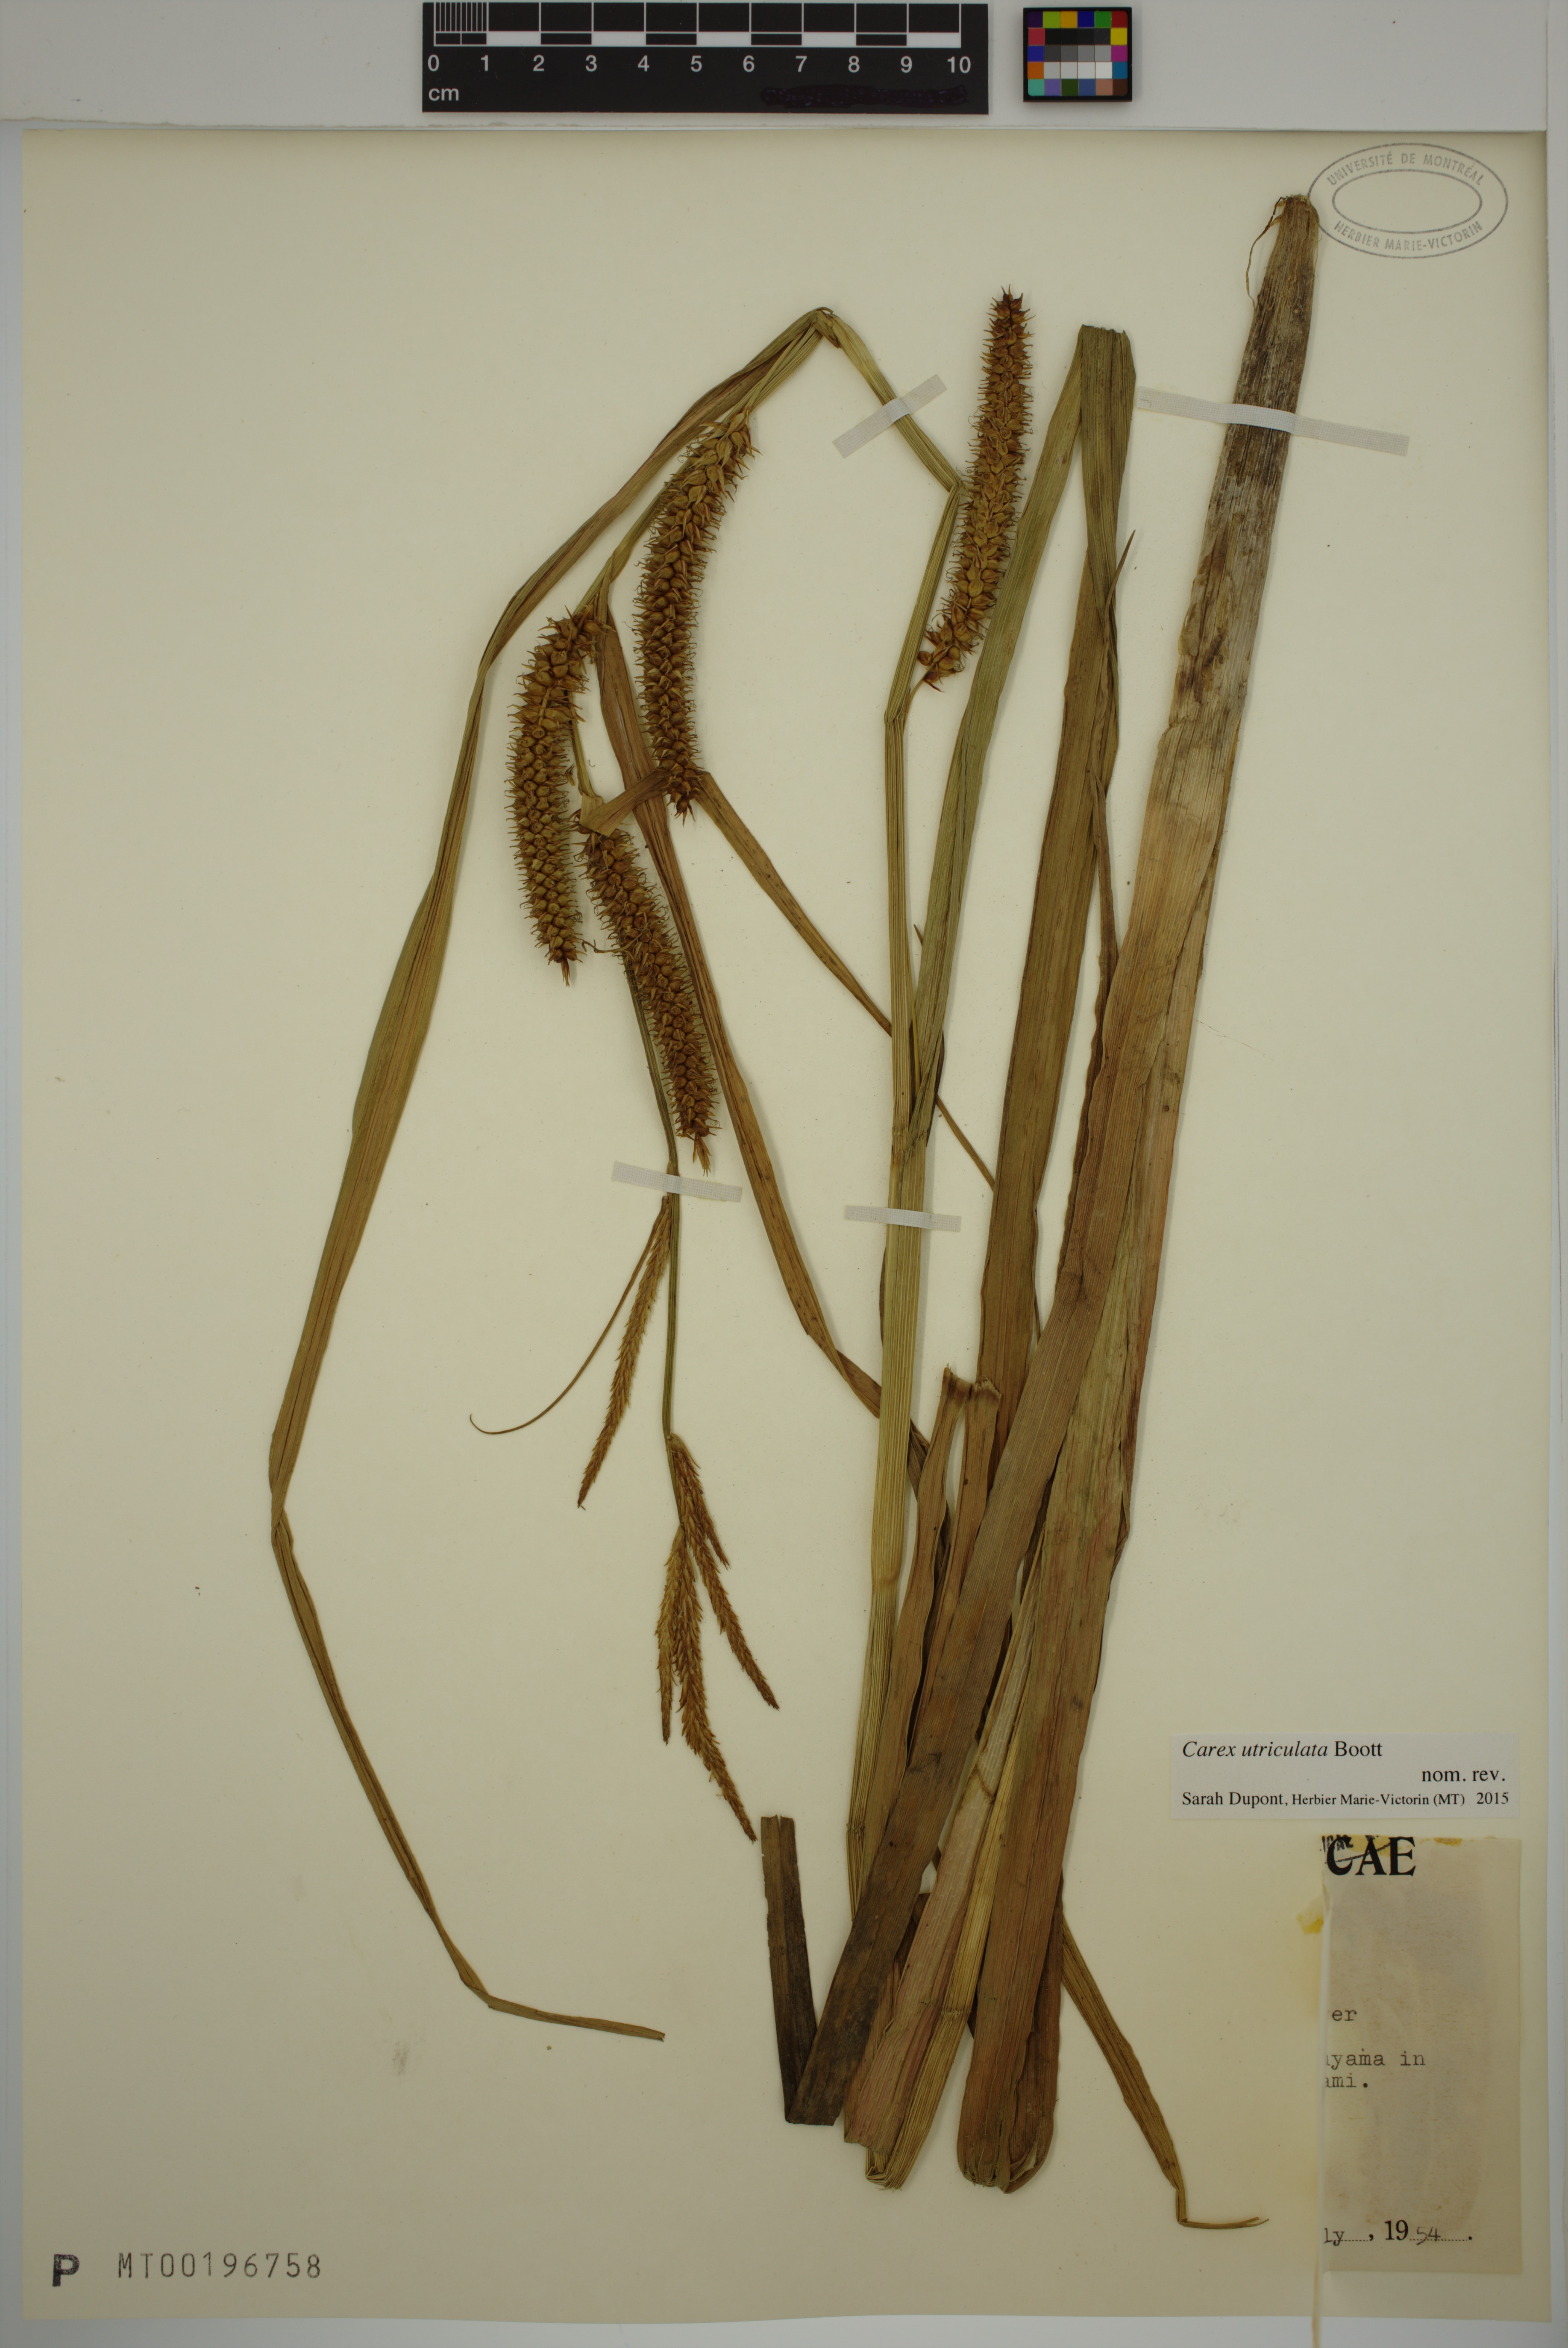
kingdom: Plantae
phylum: Tracheophyta
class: Liliopsida
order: Poales
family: Cyperaceae
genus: Carex
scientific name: Carex utriculata
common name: Beaked sedge
